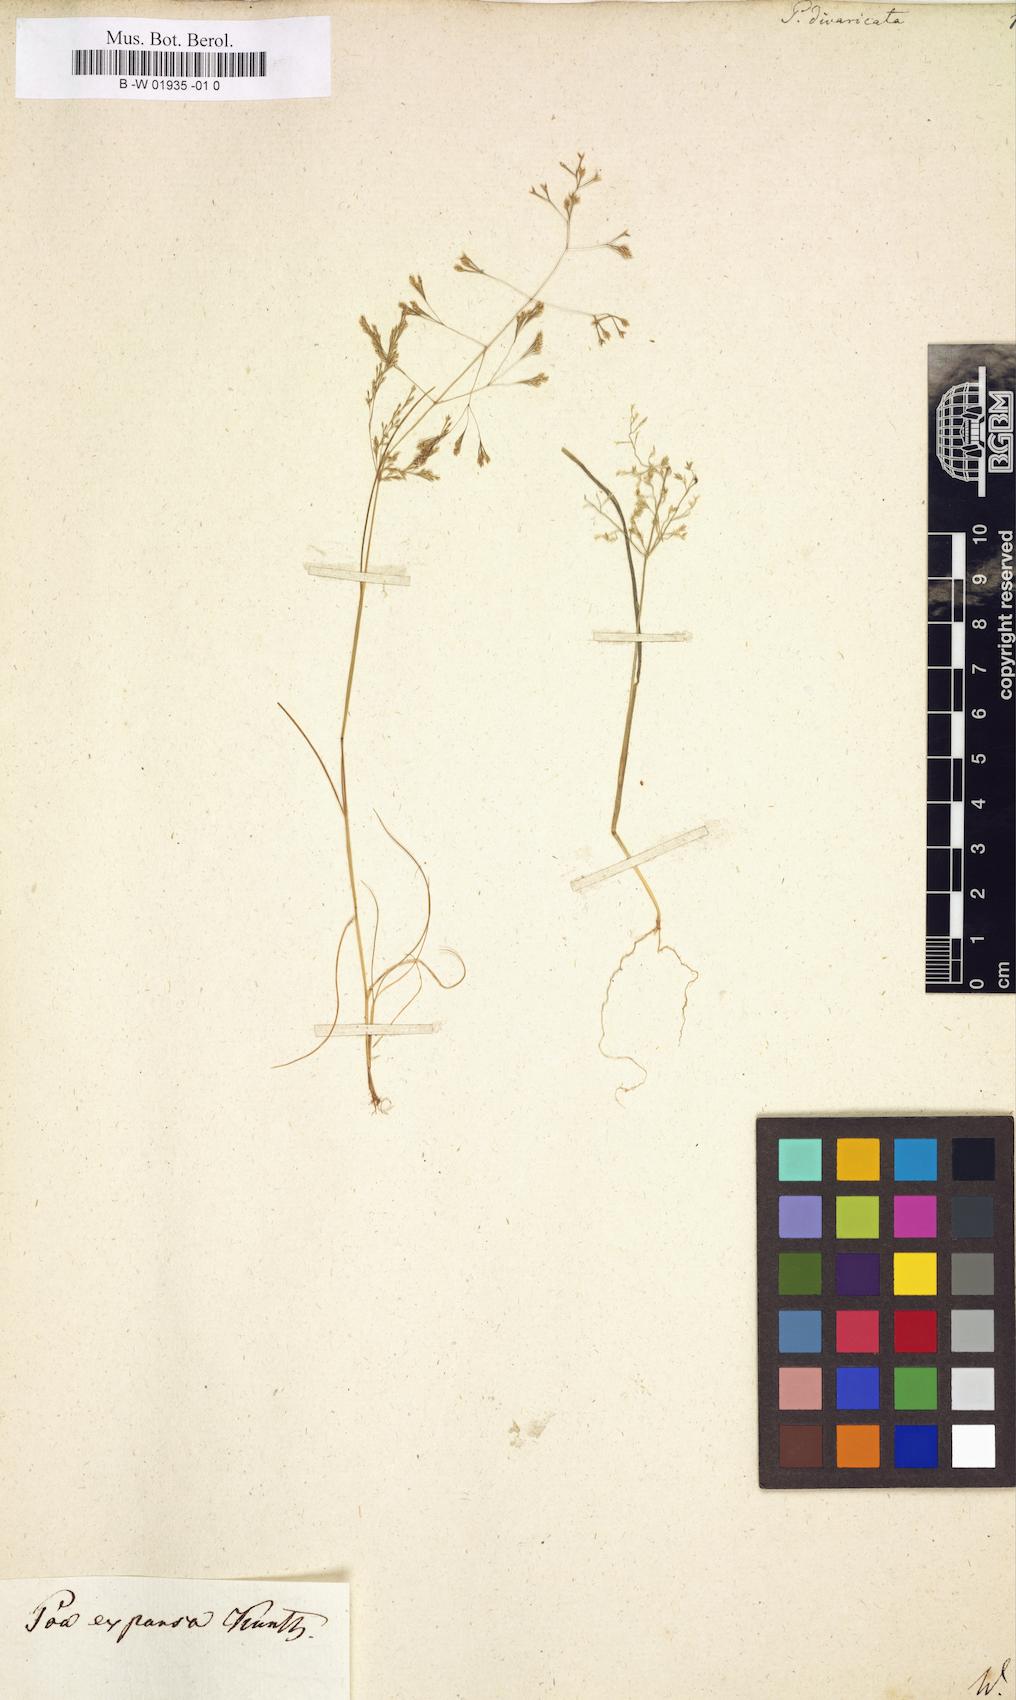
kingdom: Plantae
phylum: Tracheophyta
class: Liliopsida
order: Poales
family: Poaceae
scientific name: Poaceae
